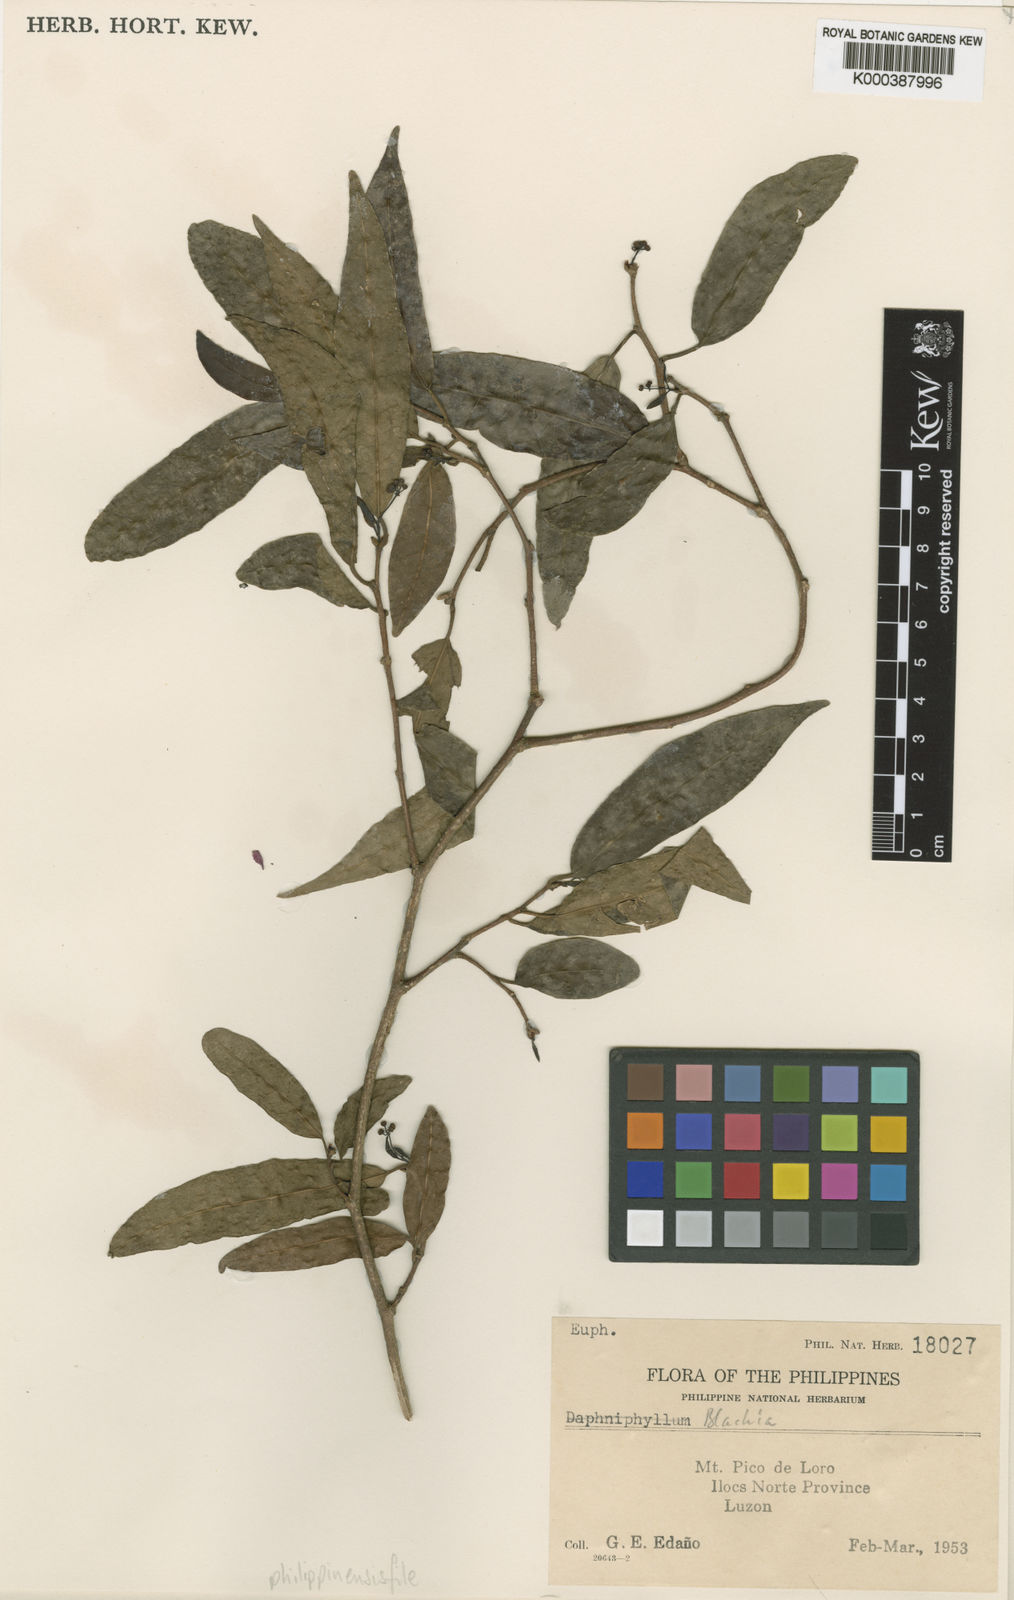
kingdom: Plantae
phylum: Tracheophyta
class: Magnoliopsida
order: Malpighiales
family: Euphorbiaceae
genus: Blachia
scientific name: Blachia philippinensis
